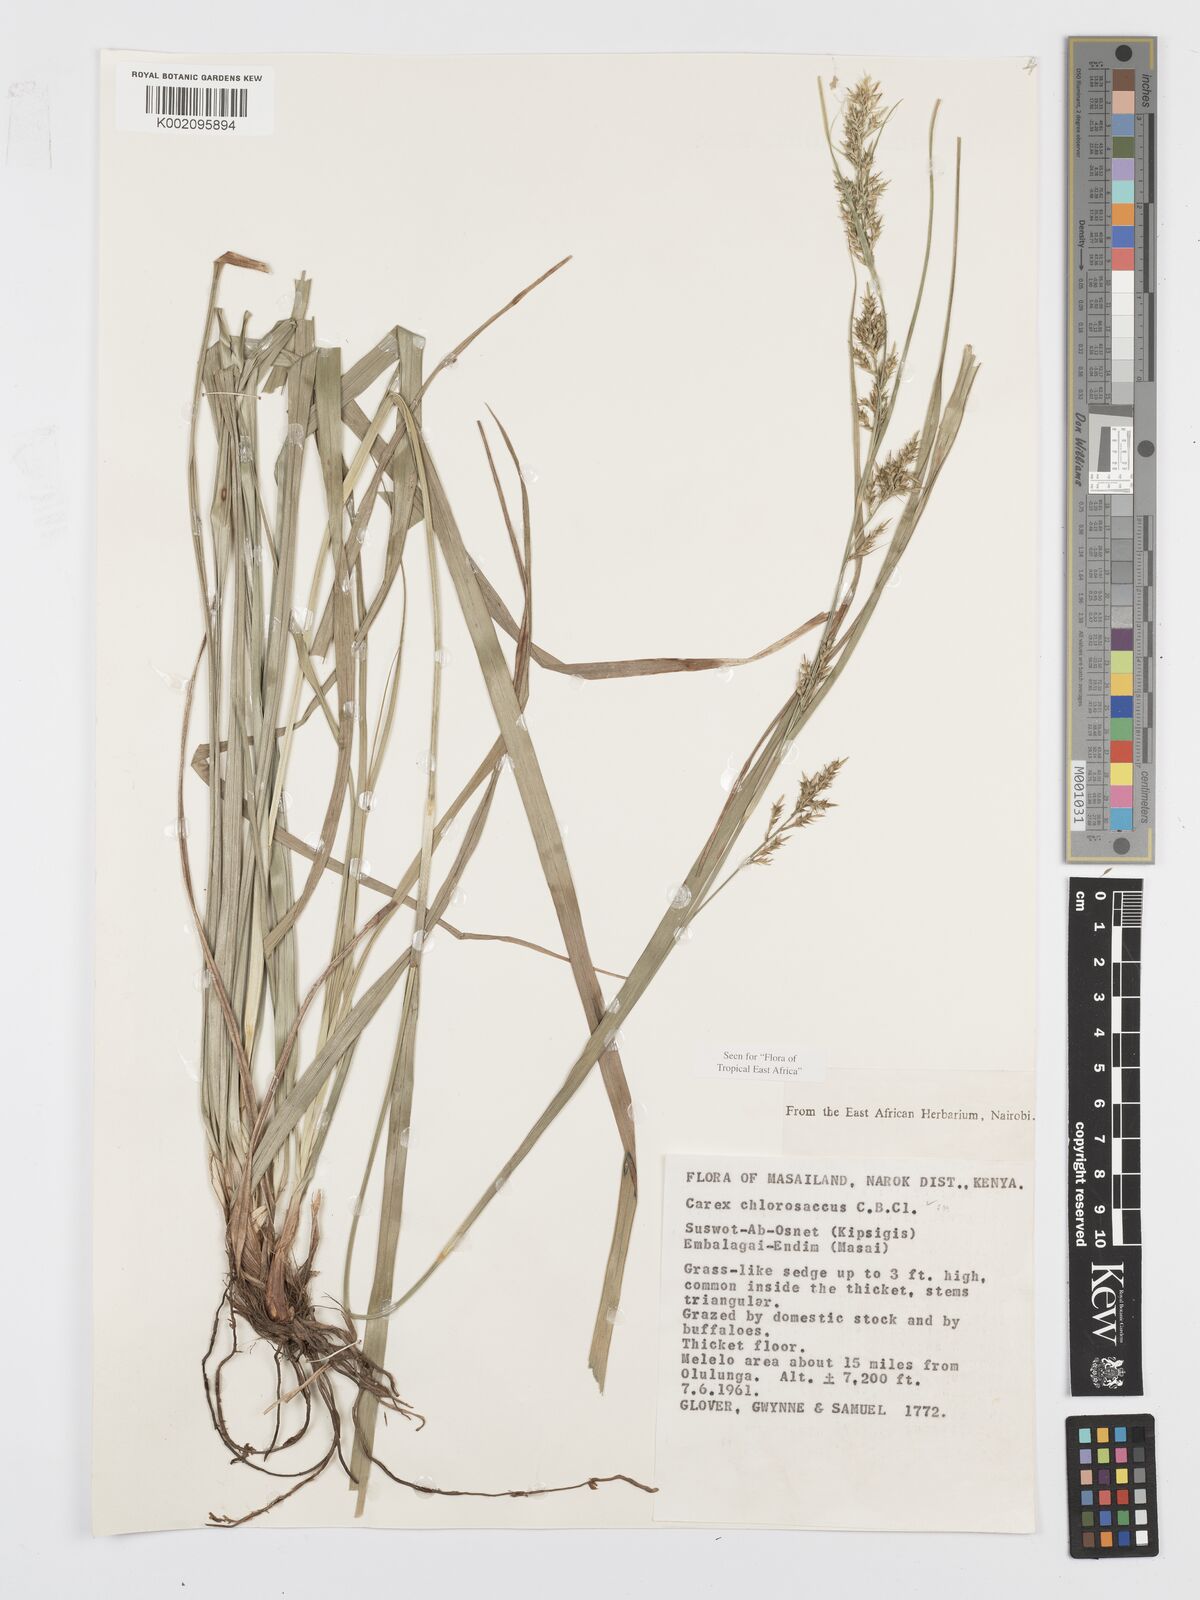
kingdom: Plantae
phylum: Tracheophyta
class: Liliopsida
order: Poales
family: Cyperaceae
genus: Carex
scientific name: Carex chlorosaccus
